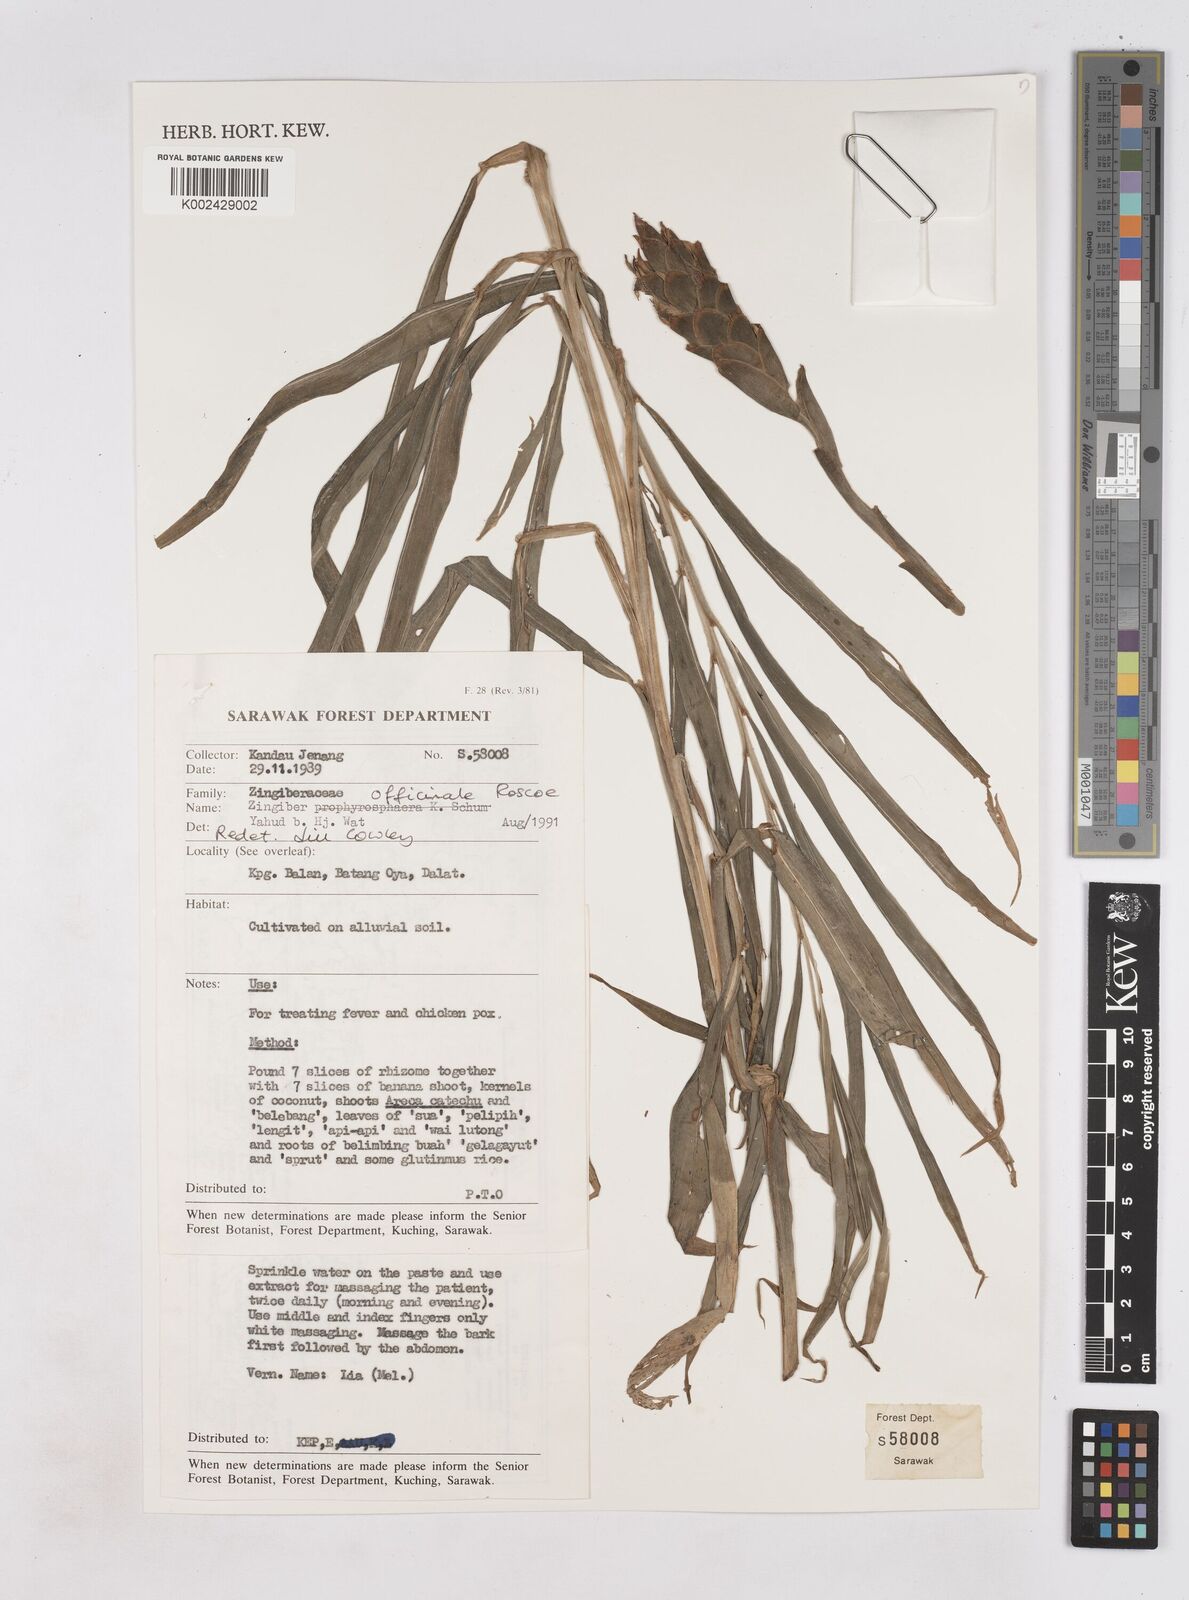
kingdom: Plantae
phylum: Tracheophyta
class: Liliopsida
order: Zingiberales
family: Zingiberaceae
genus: Zingiber
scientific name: Zingiber officinale
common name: Ginger
